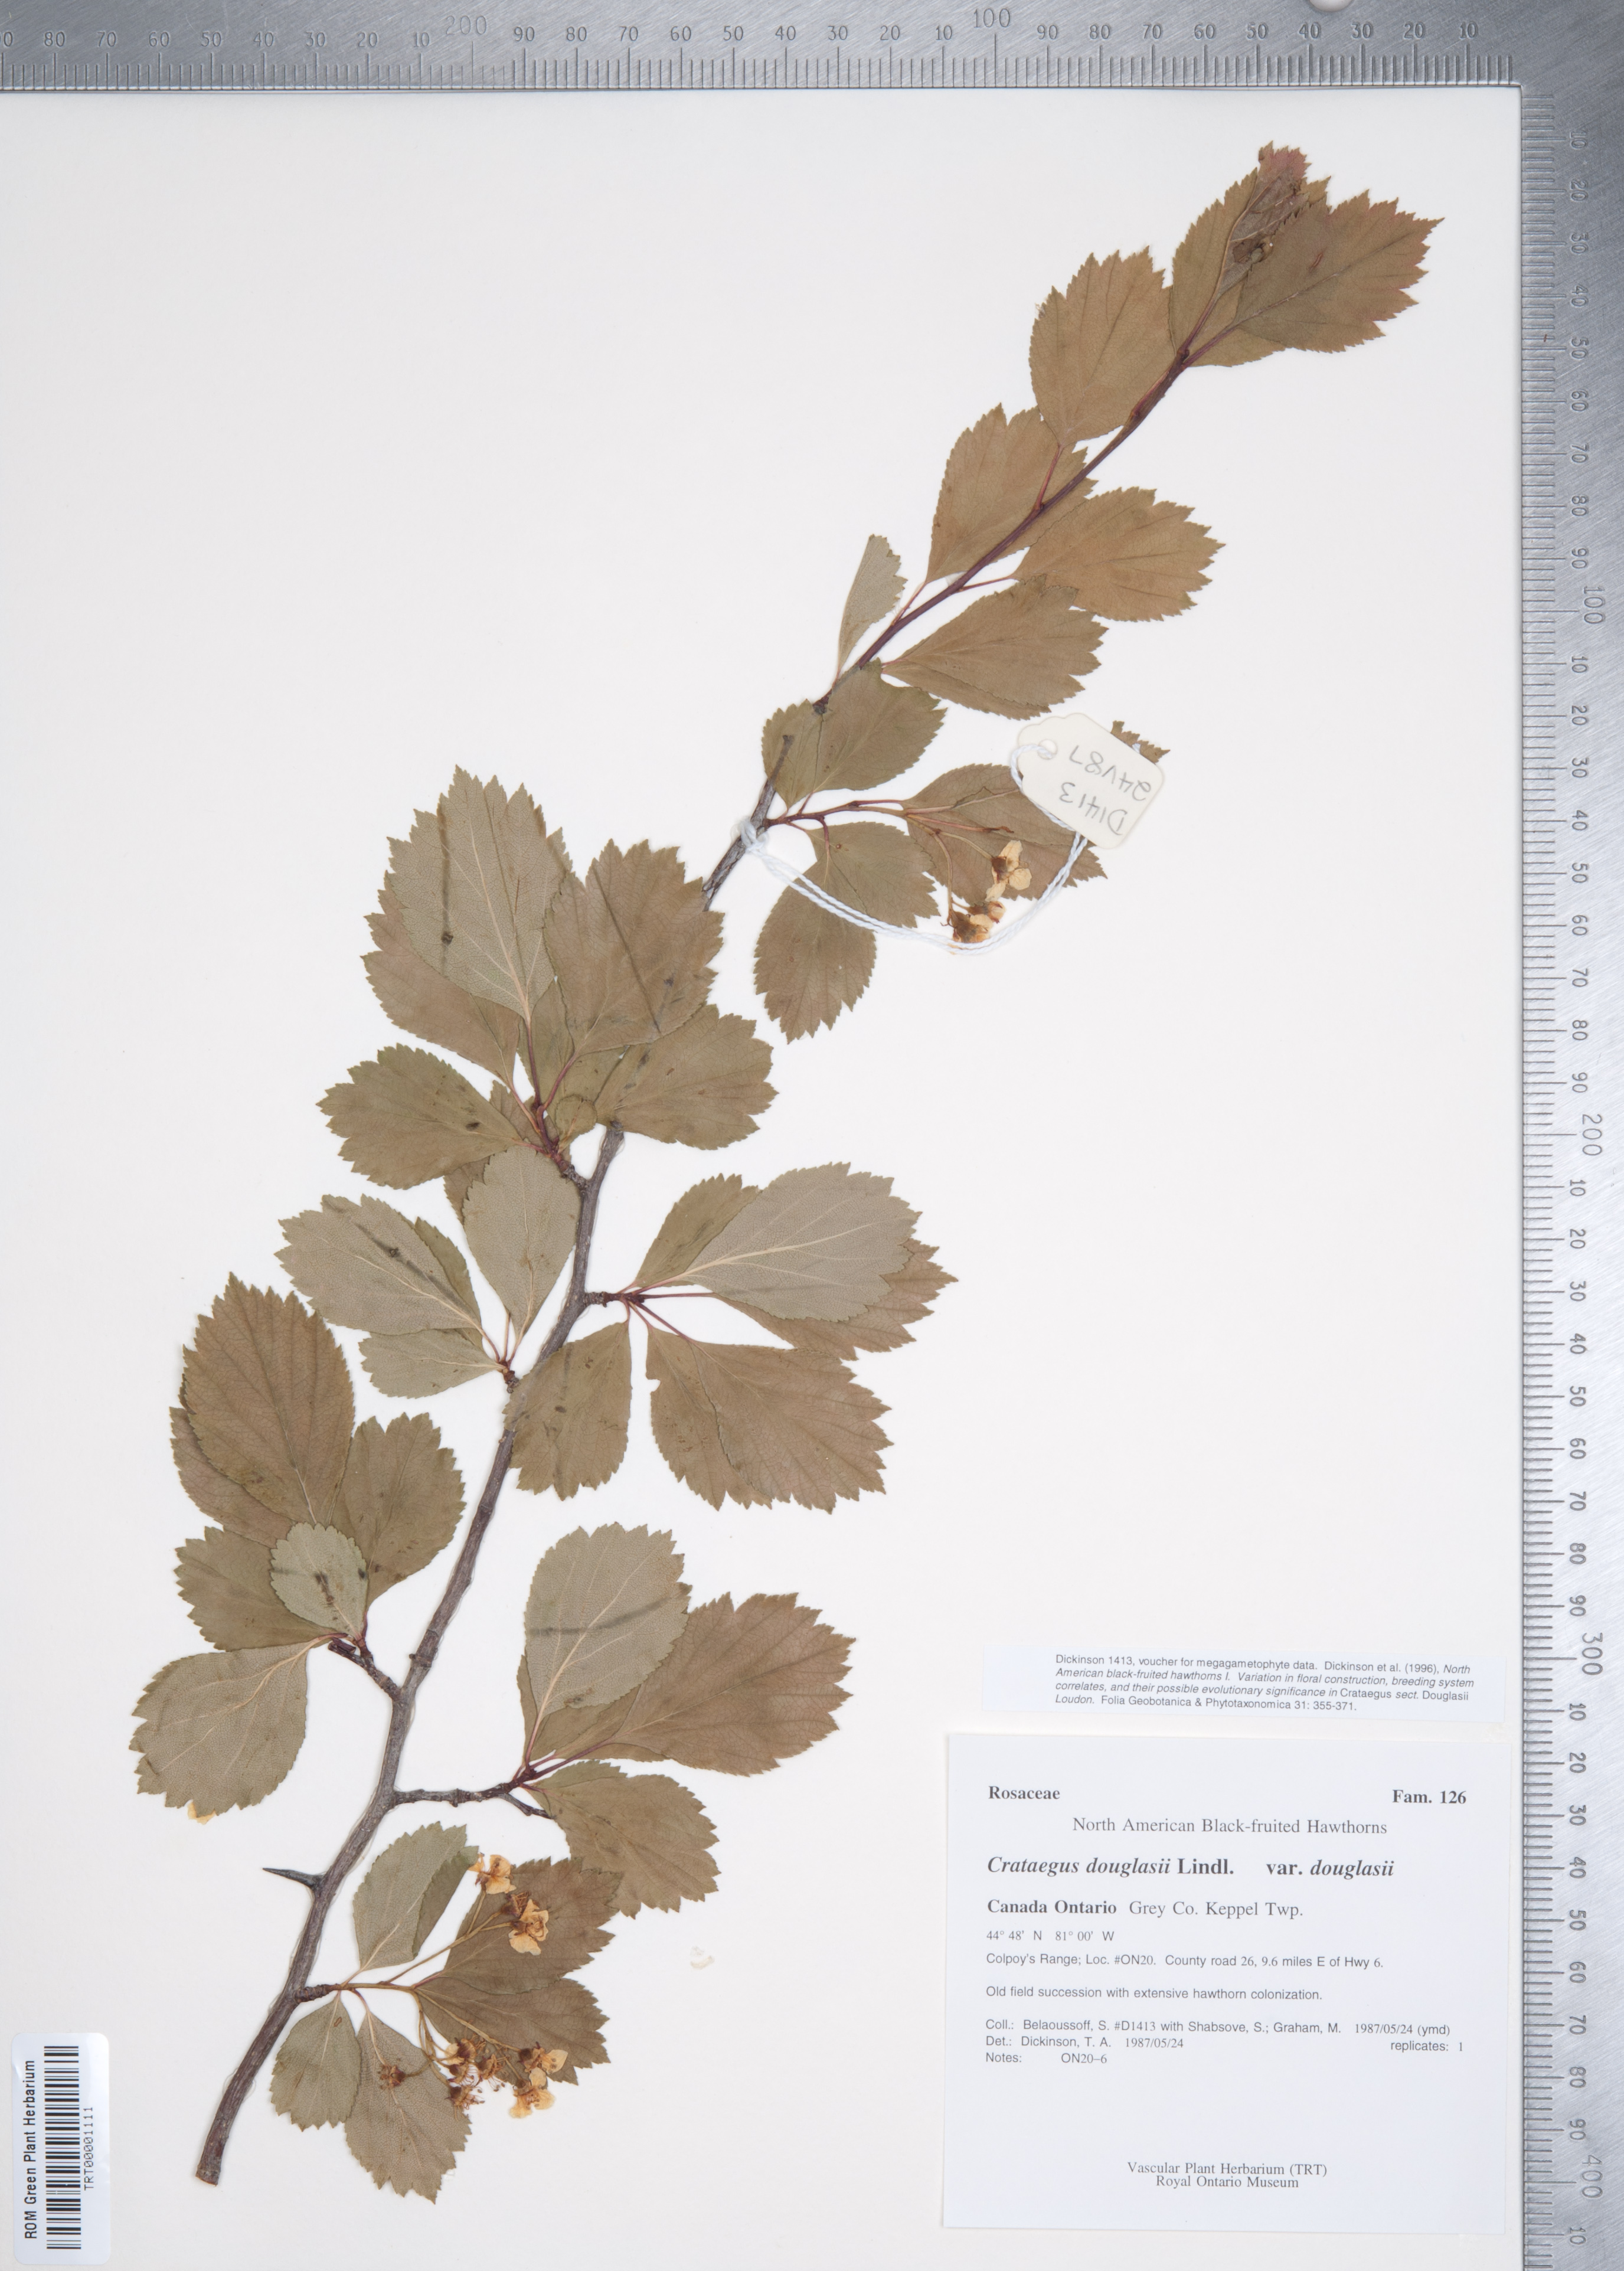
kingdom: Plantae
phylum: Tracheophyta
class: Magnoliopsida
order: Rosales
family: Rosaceae
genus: Crataegus
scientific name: Crataegus douglasii
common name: Black hawthorn
